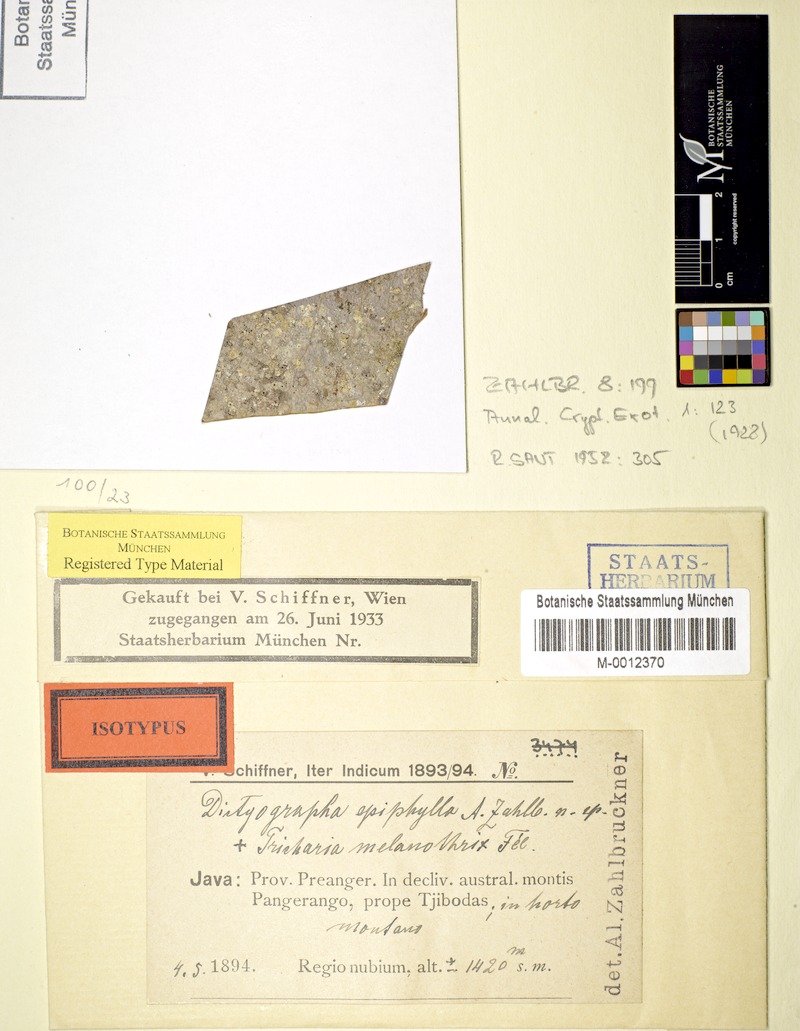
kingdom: Fungi
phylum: Ascomycota
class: Lecanoromycetes
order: Ostropales
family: Gomphillaceae
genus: Aulaxina
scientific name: Aulaxina epiphylla
